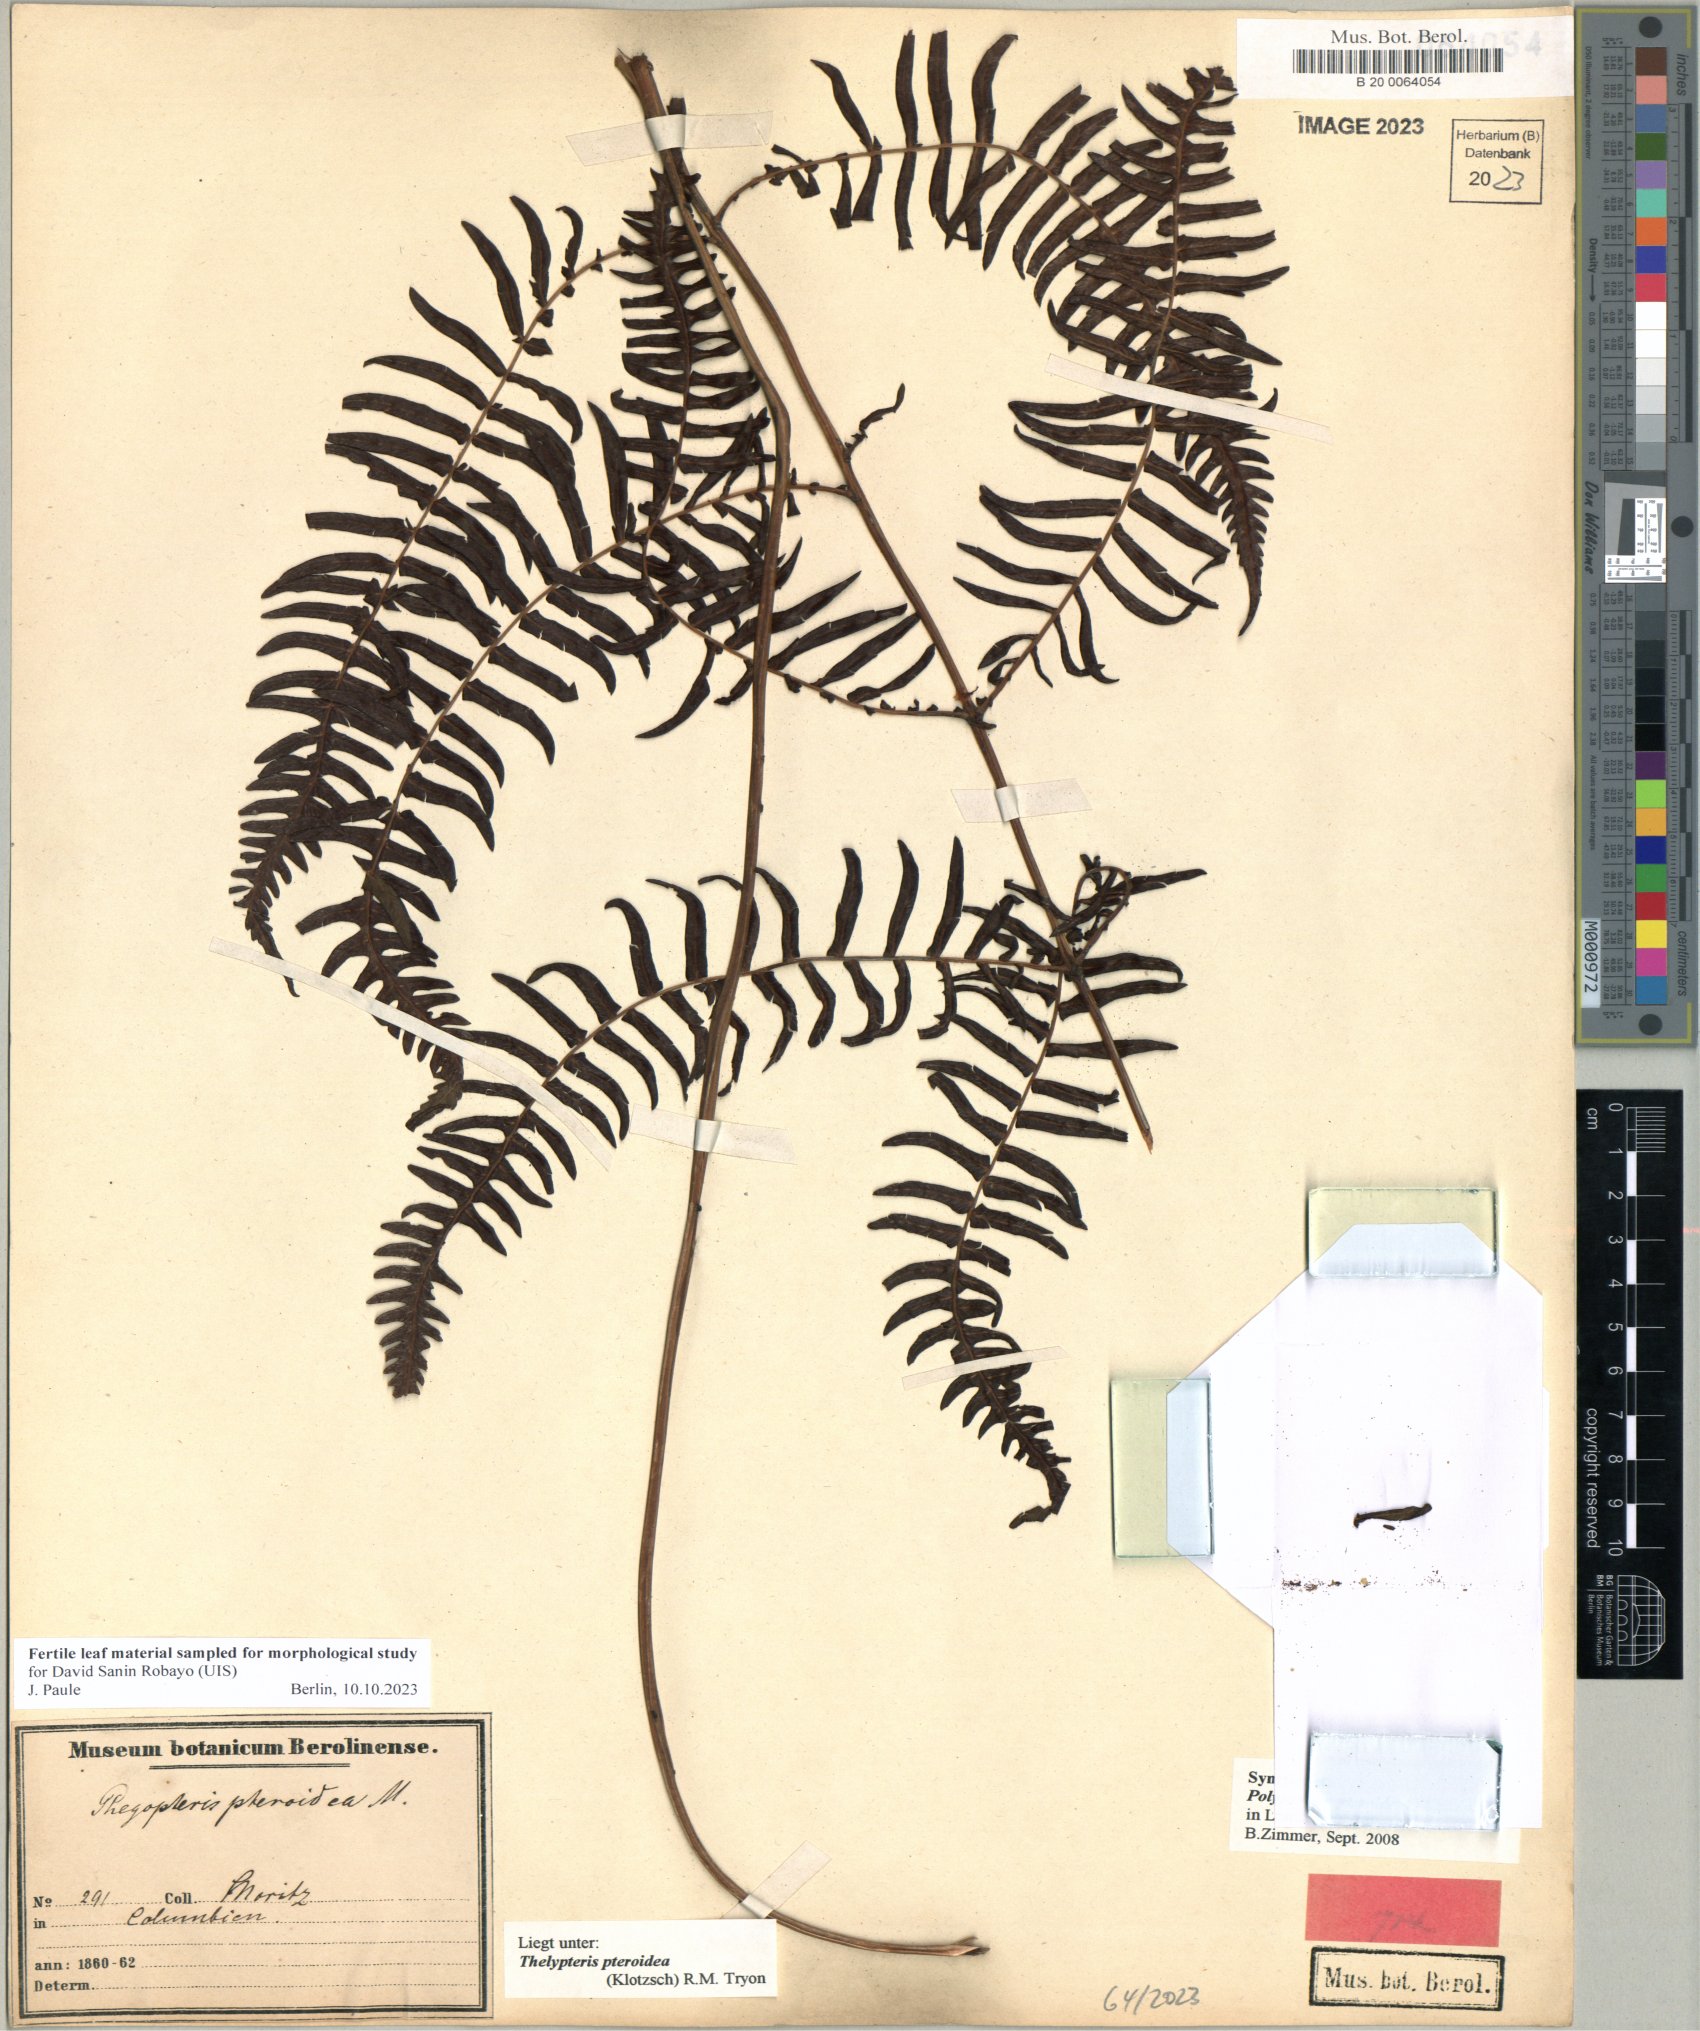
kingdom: Plantae
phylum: Tracheophyta
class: Polypodiopsida
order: Polypodiales
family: Thelypteridaceae
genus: Amauropelta
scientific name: Amauropelta pteroidea
